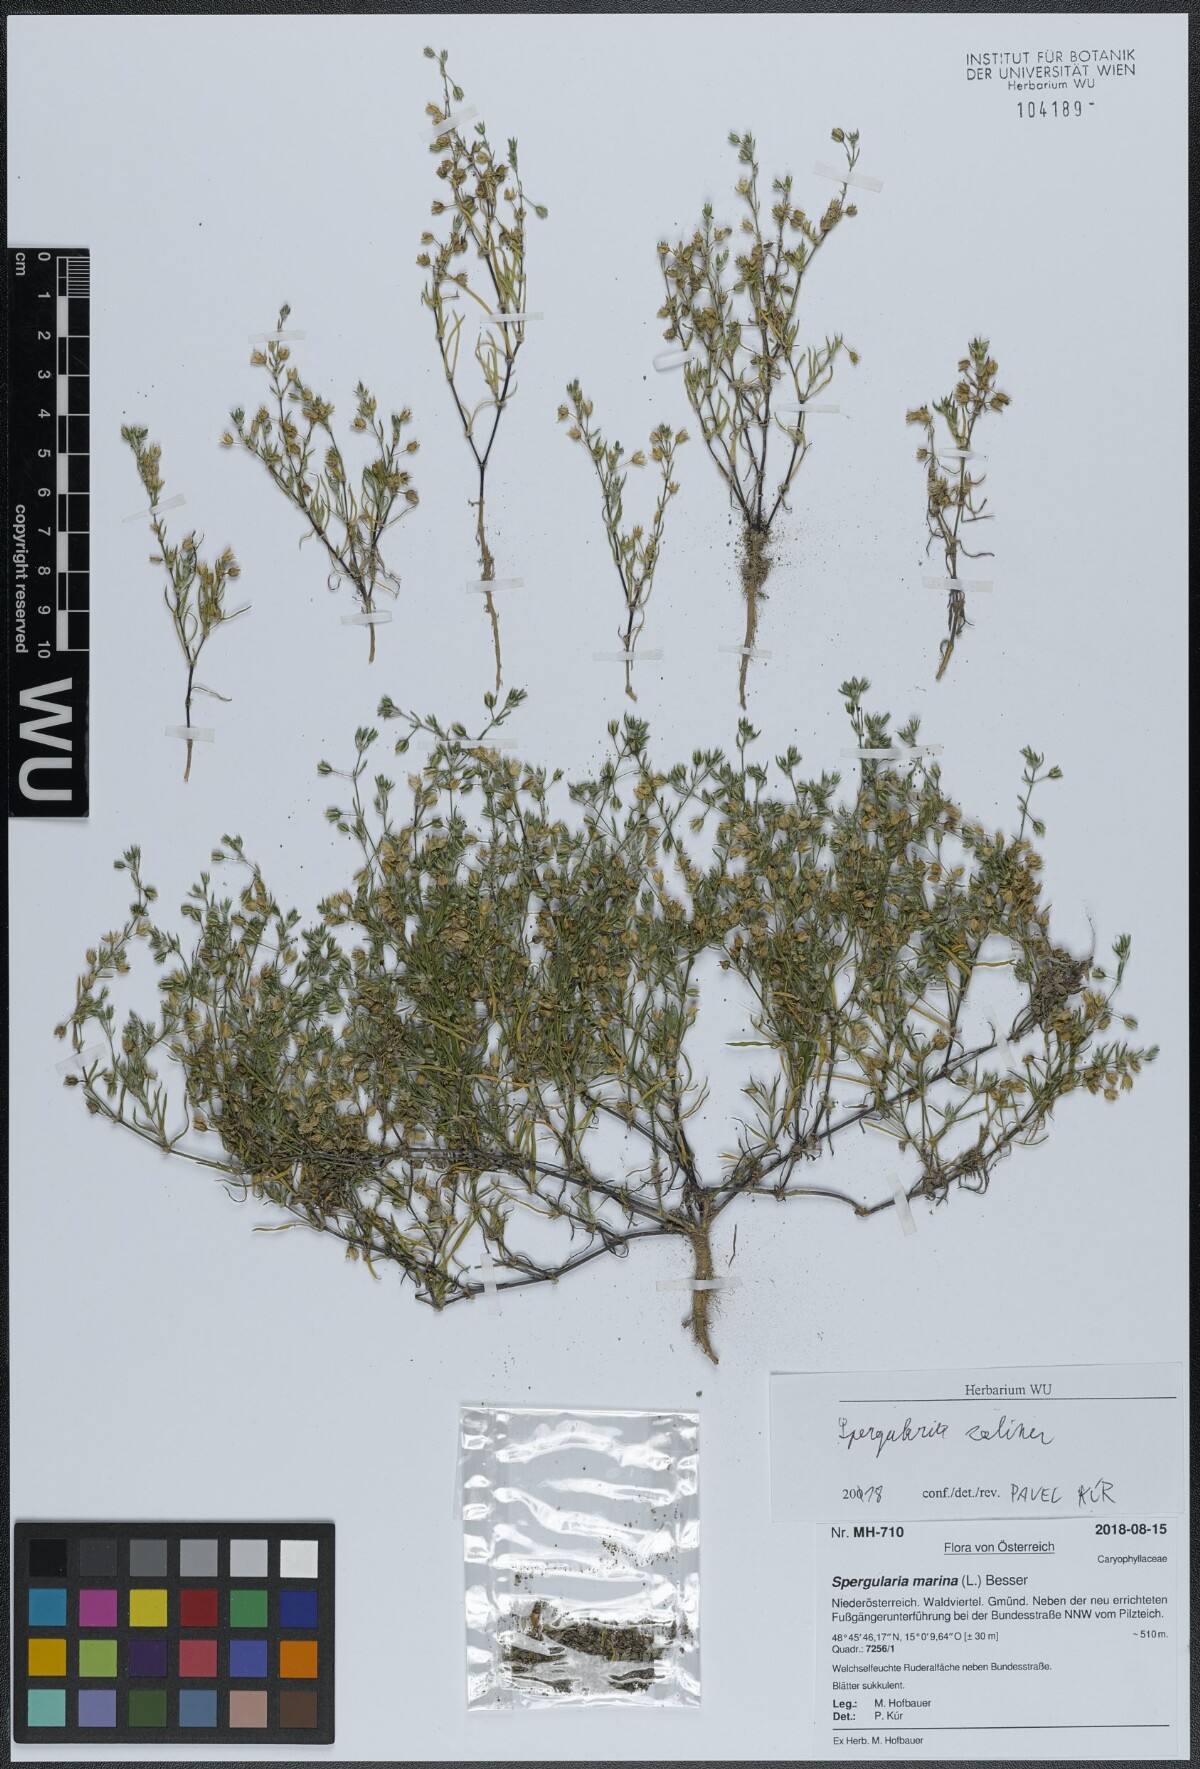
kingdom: Plantae
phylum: Tracheophyta
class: Magnoliopsida
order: Caryophyllales
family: Caryophyllaceae
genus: Spergularia
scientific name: Spergularia marina
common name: Lesser sea-spurrey
